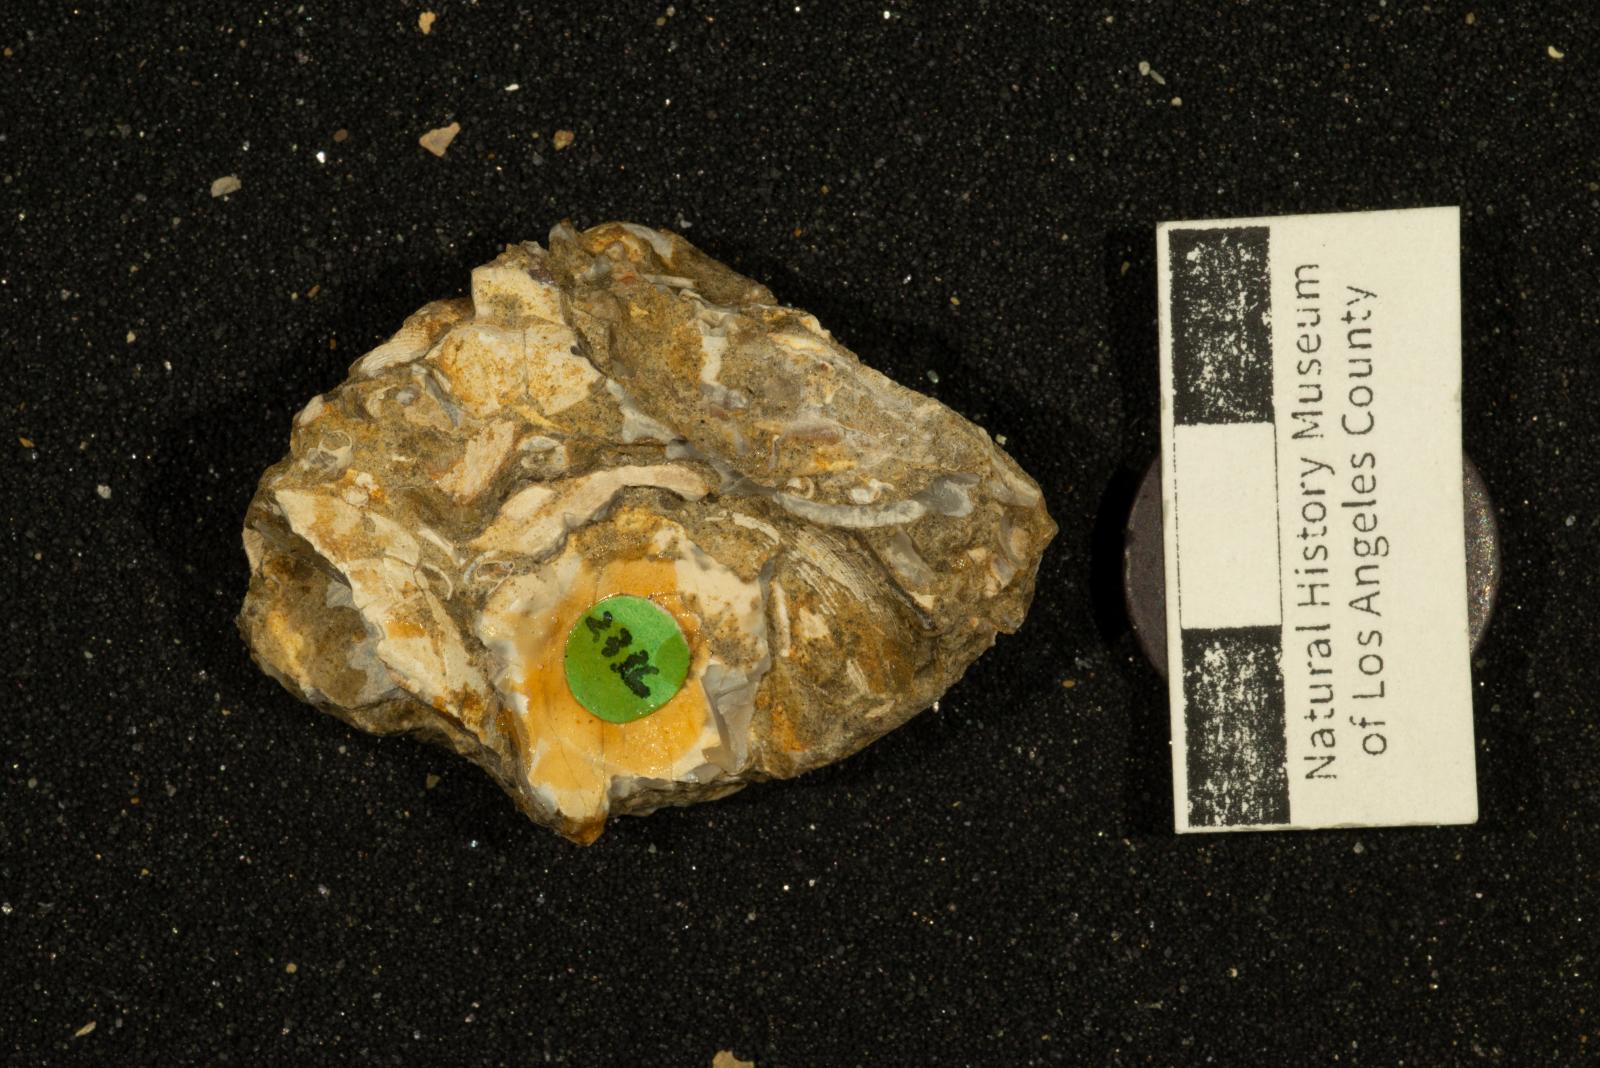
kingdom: Animalia
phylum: Mollusca
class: Bivalvia
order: Venerida
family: Mactridae
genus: Cymbophora
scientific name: Cymbophora popenoei
